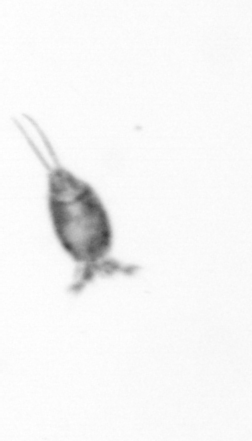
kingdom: Animalia
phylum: Arthropoda
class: Copepoda
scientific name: Copepoda
